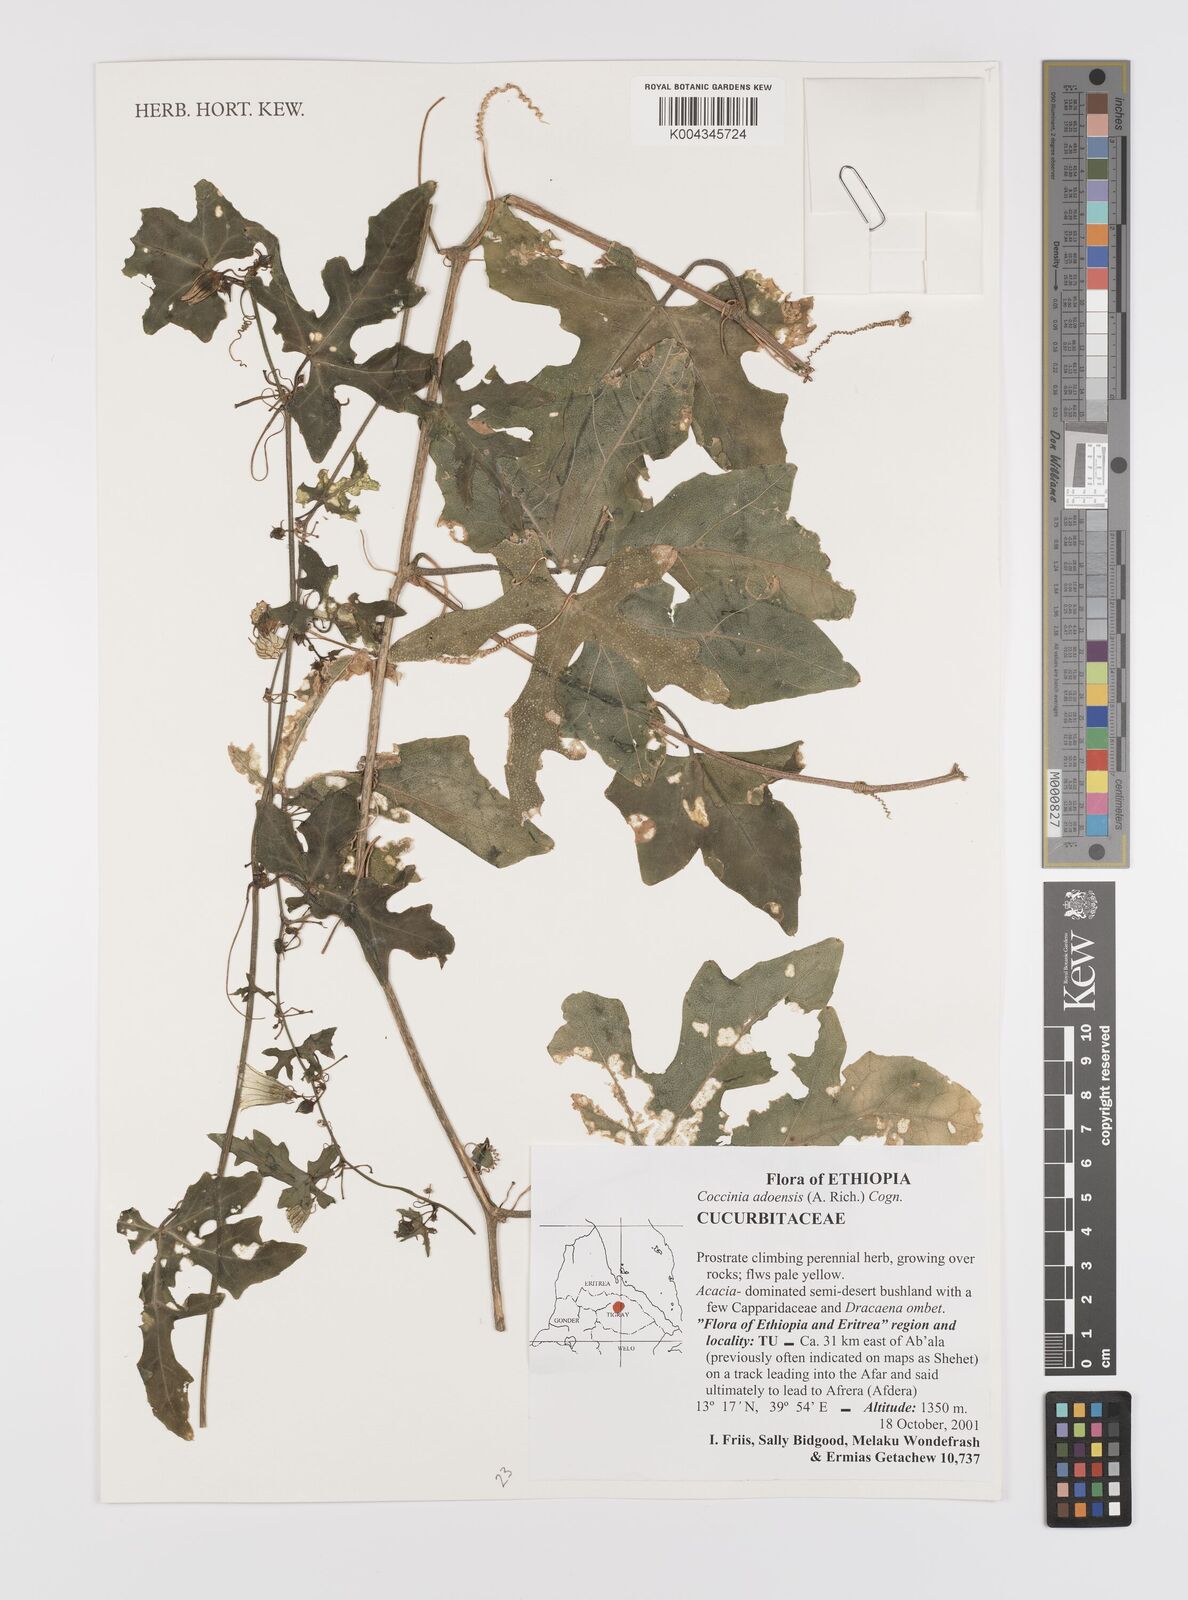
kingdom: Plantae
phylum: Tracheophyta
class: Magnoliopsida
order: Cucurbitales
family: Cucurbitaceae
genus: Coccinia
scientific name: Coccinia adoensis
